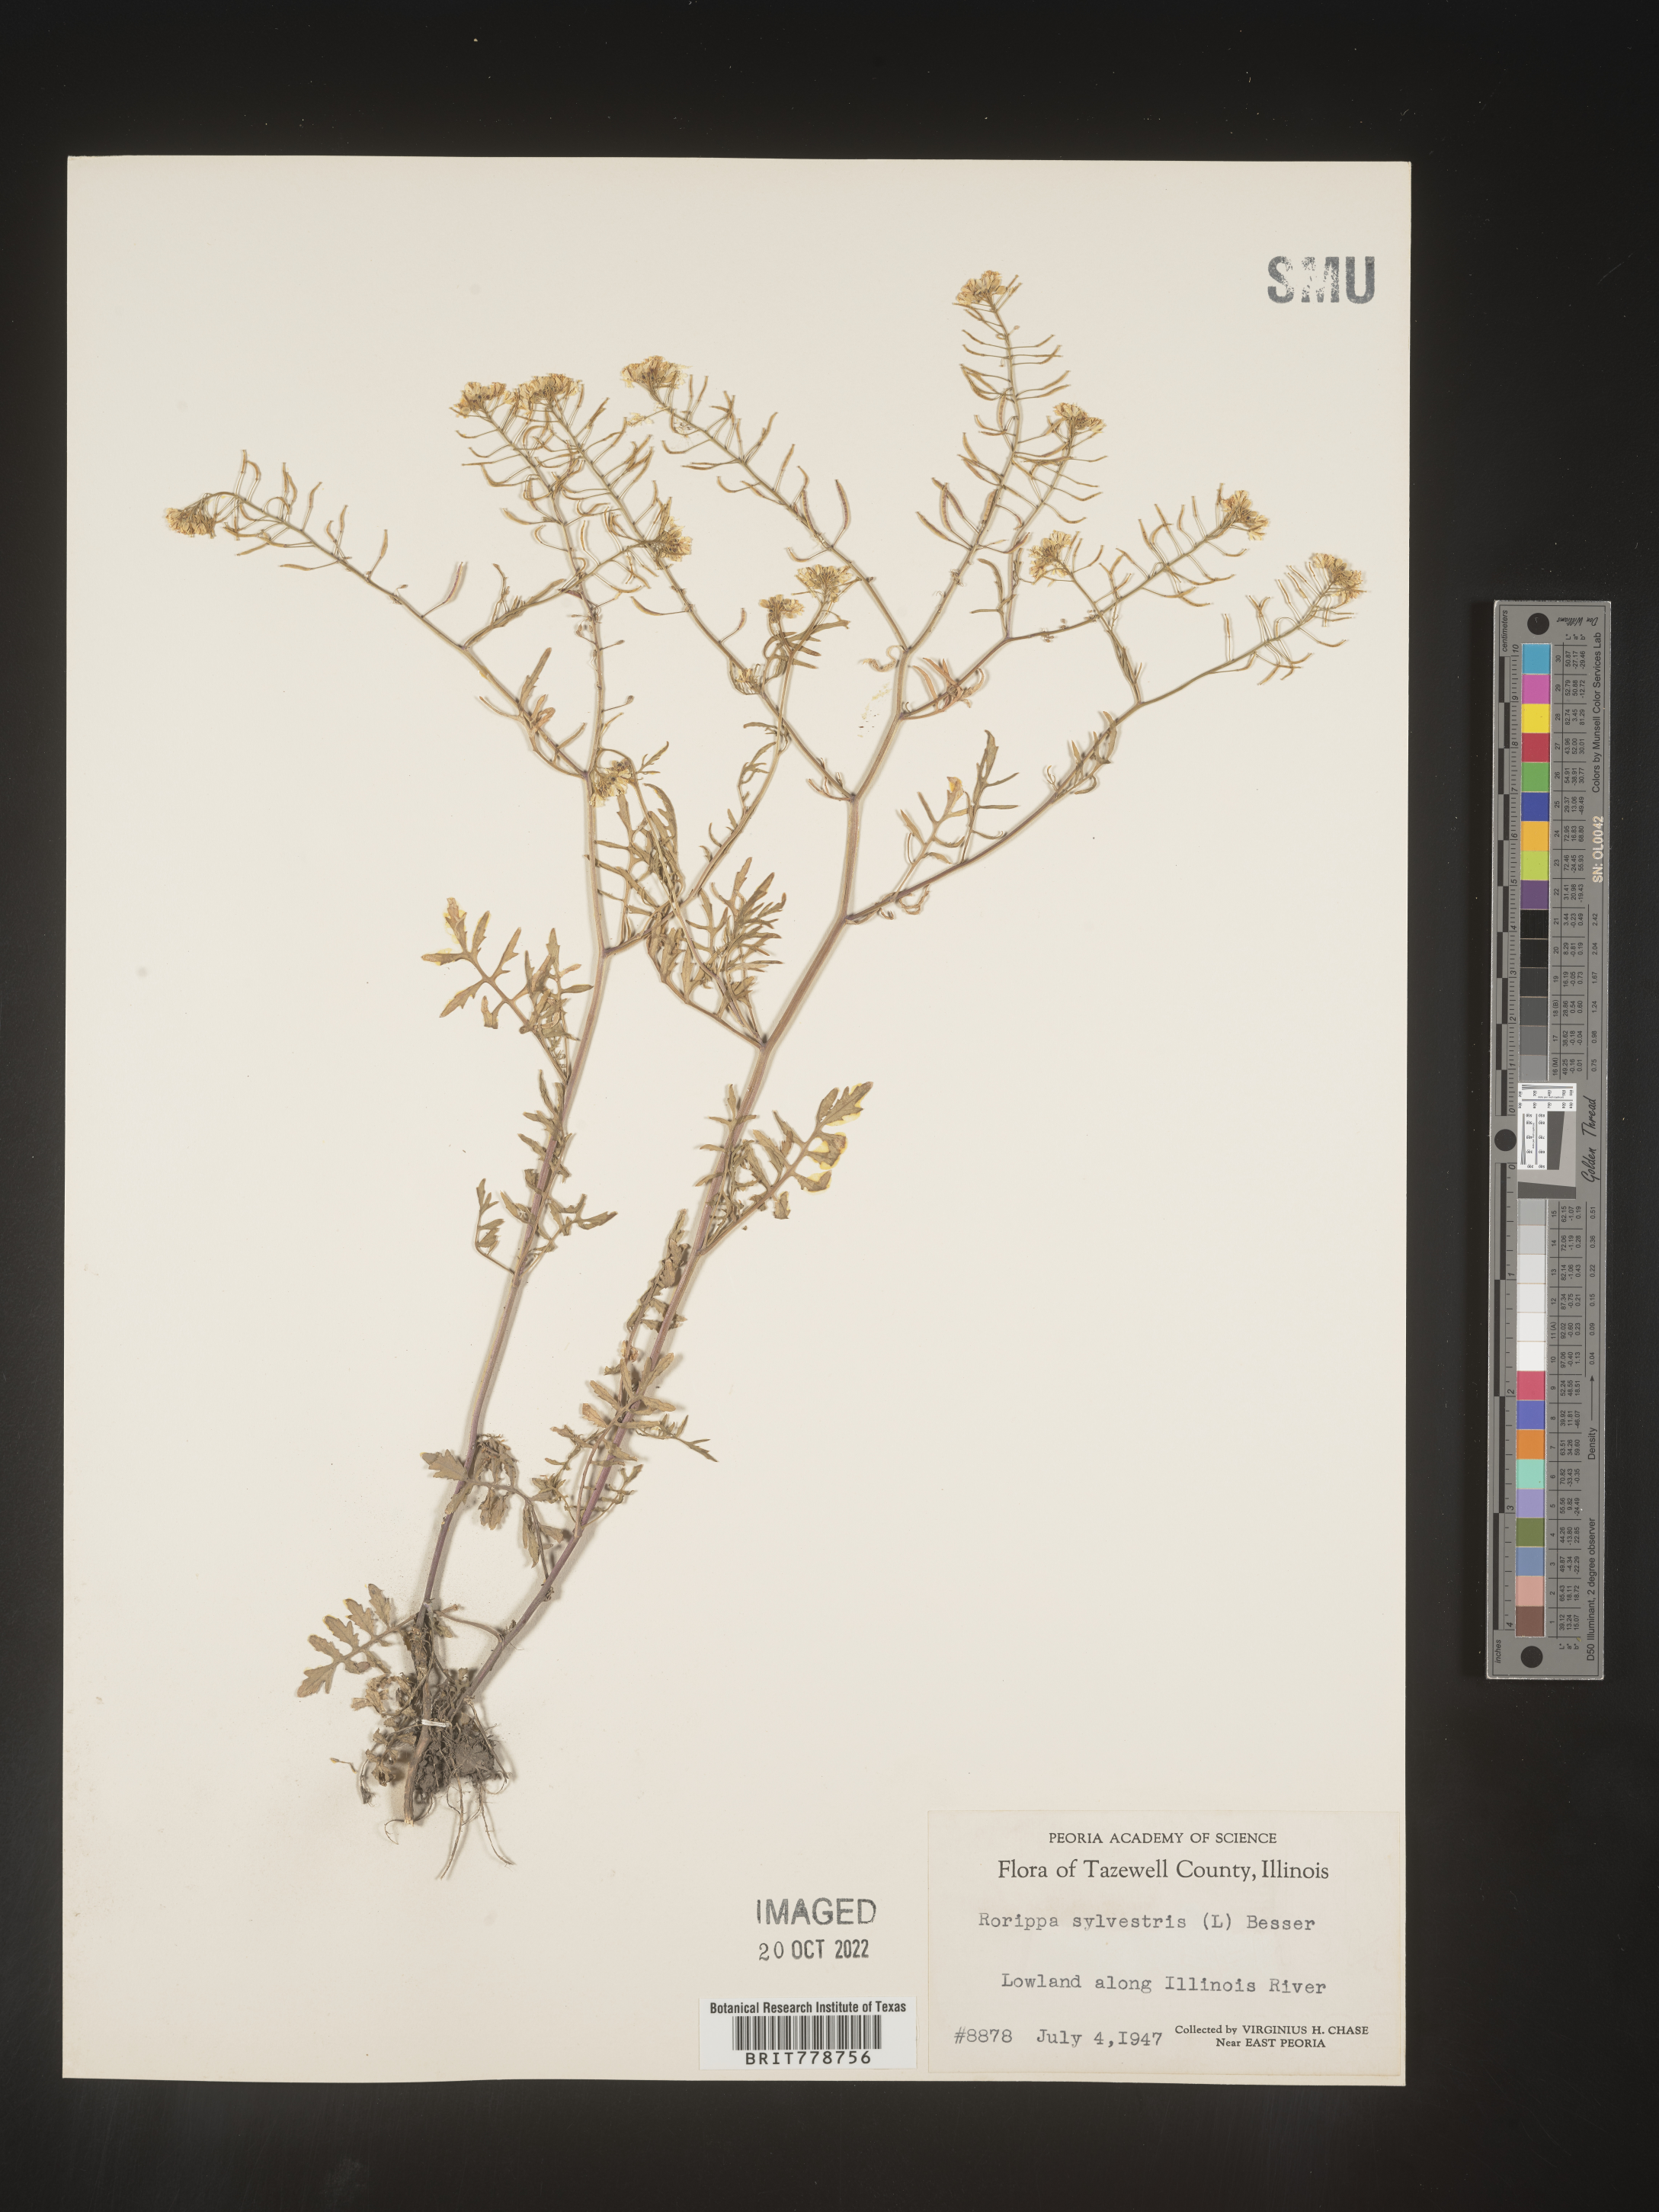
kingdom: Plantae
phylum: Tracheophyta
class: Magnoliopsida
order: Brassicales
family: Brassicaceae
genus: Rorippa
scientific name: Rorippa sylvestris
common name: Creeping yellowcress
